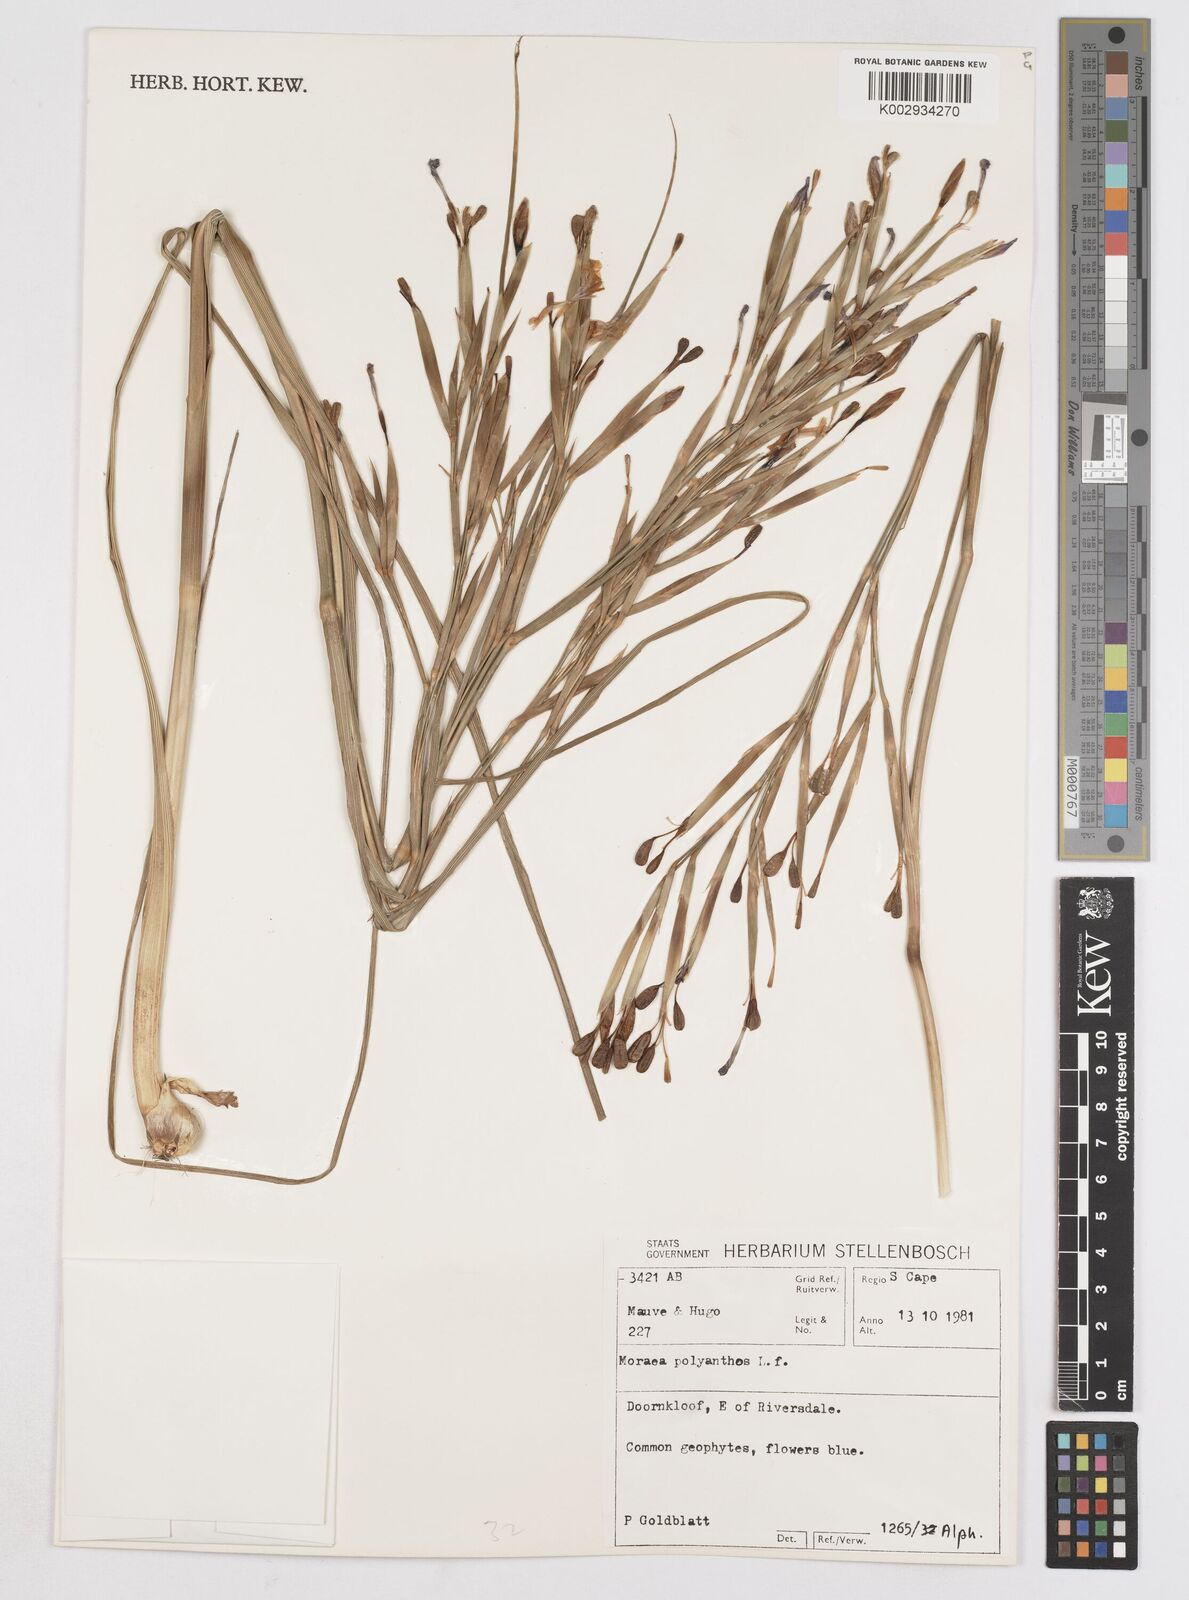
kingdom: Plantae
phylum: Tracheophyta
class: Liliopsida
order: Asparagales
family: Iridaceae
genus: Moraea
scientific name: Moraea bipartita
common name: Blue tulp
